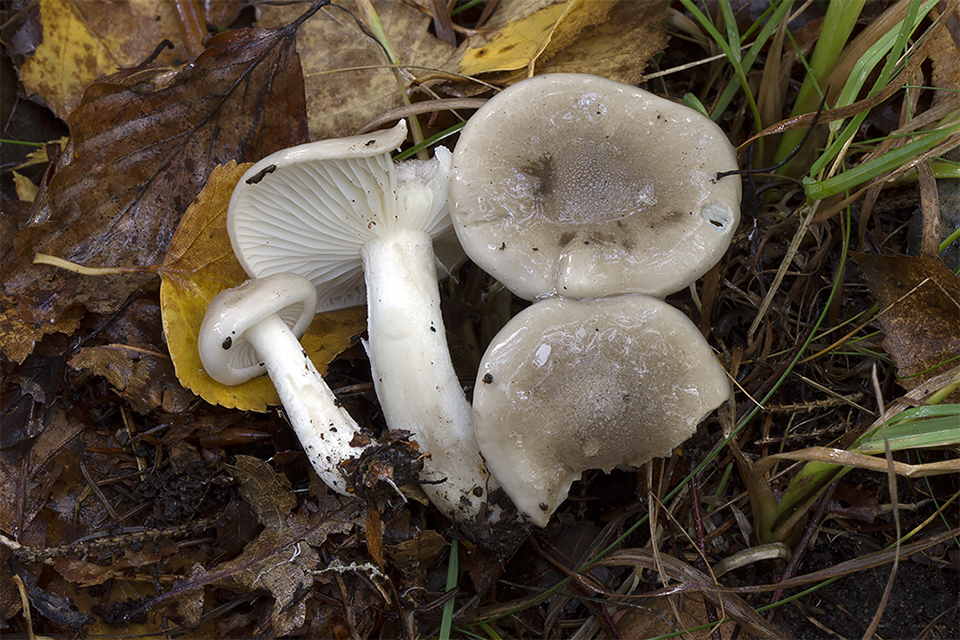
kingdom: Fungi
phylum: Basidiomycota
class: Agaricomycetes
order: Agaricales
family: Hygrophoraceae
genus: Hygrophorus
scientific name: Hygrophorus agathosmus
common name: vellugtende sneglehat
